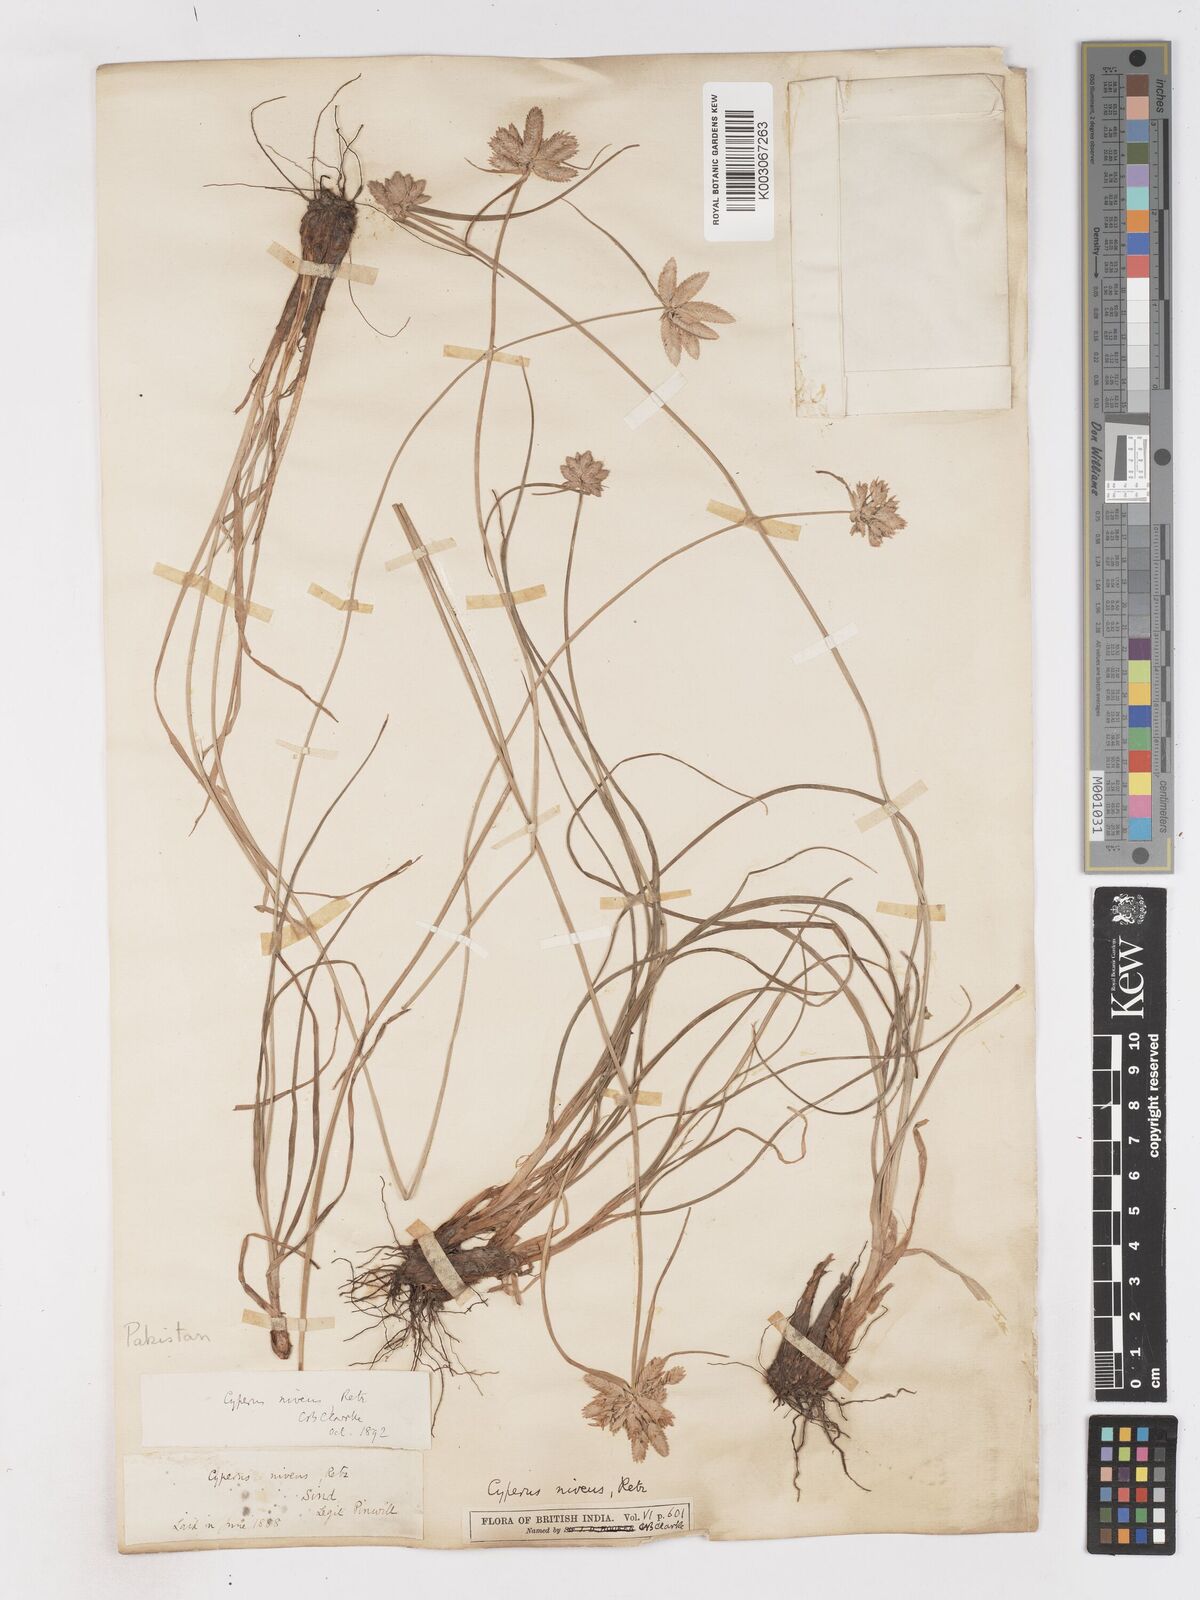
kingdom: Plantae
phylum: Tracheophyta
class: Liliopsida
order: Poales
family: Cyperaceae
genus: Cyperus
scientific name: Cyperus niveus
